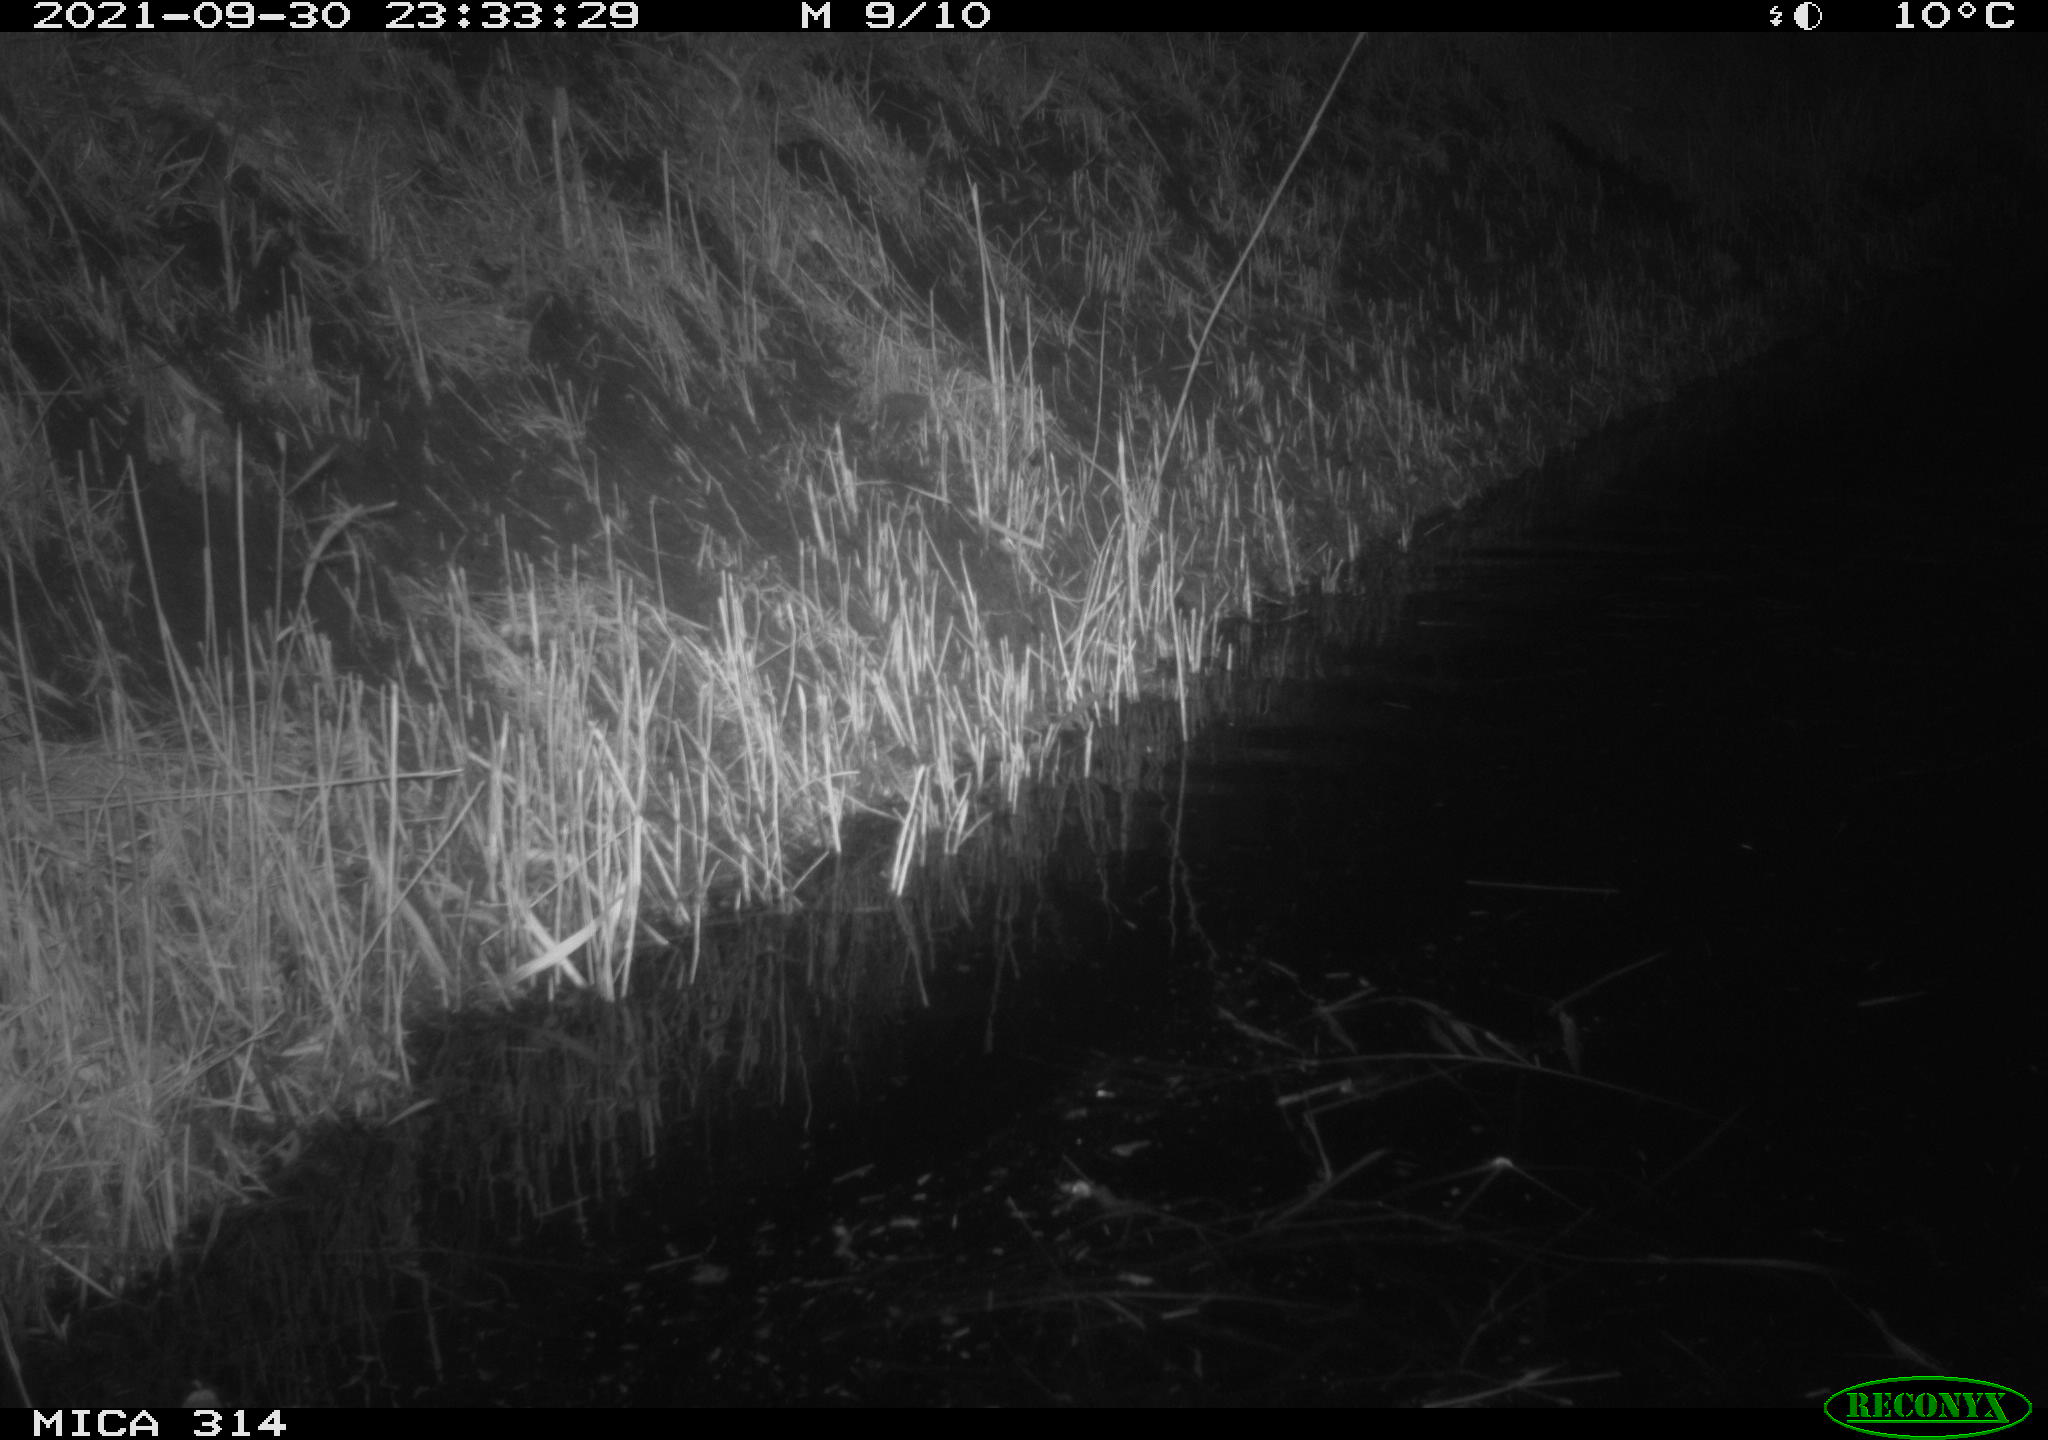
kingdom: Animalia
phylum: Chordata
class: Mammalia
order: Rodentia
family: Muridae
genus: Rattus
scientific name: Rattus norvegicus
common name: Brown rat
